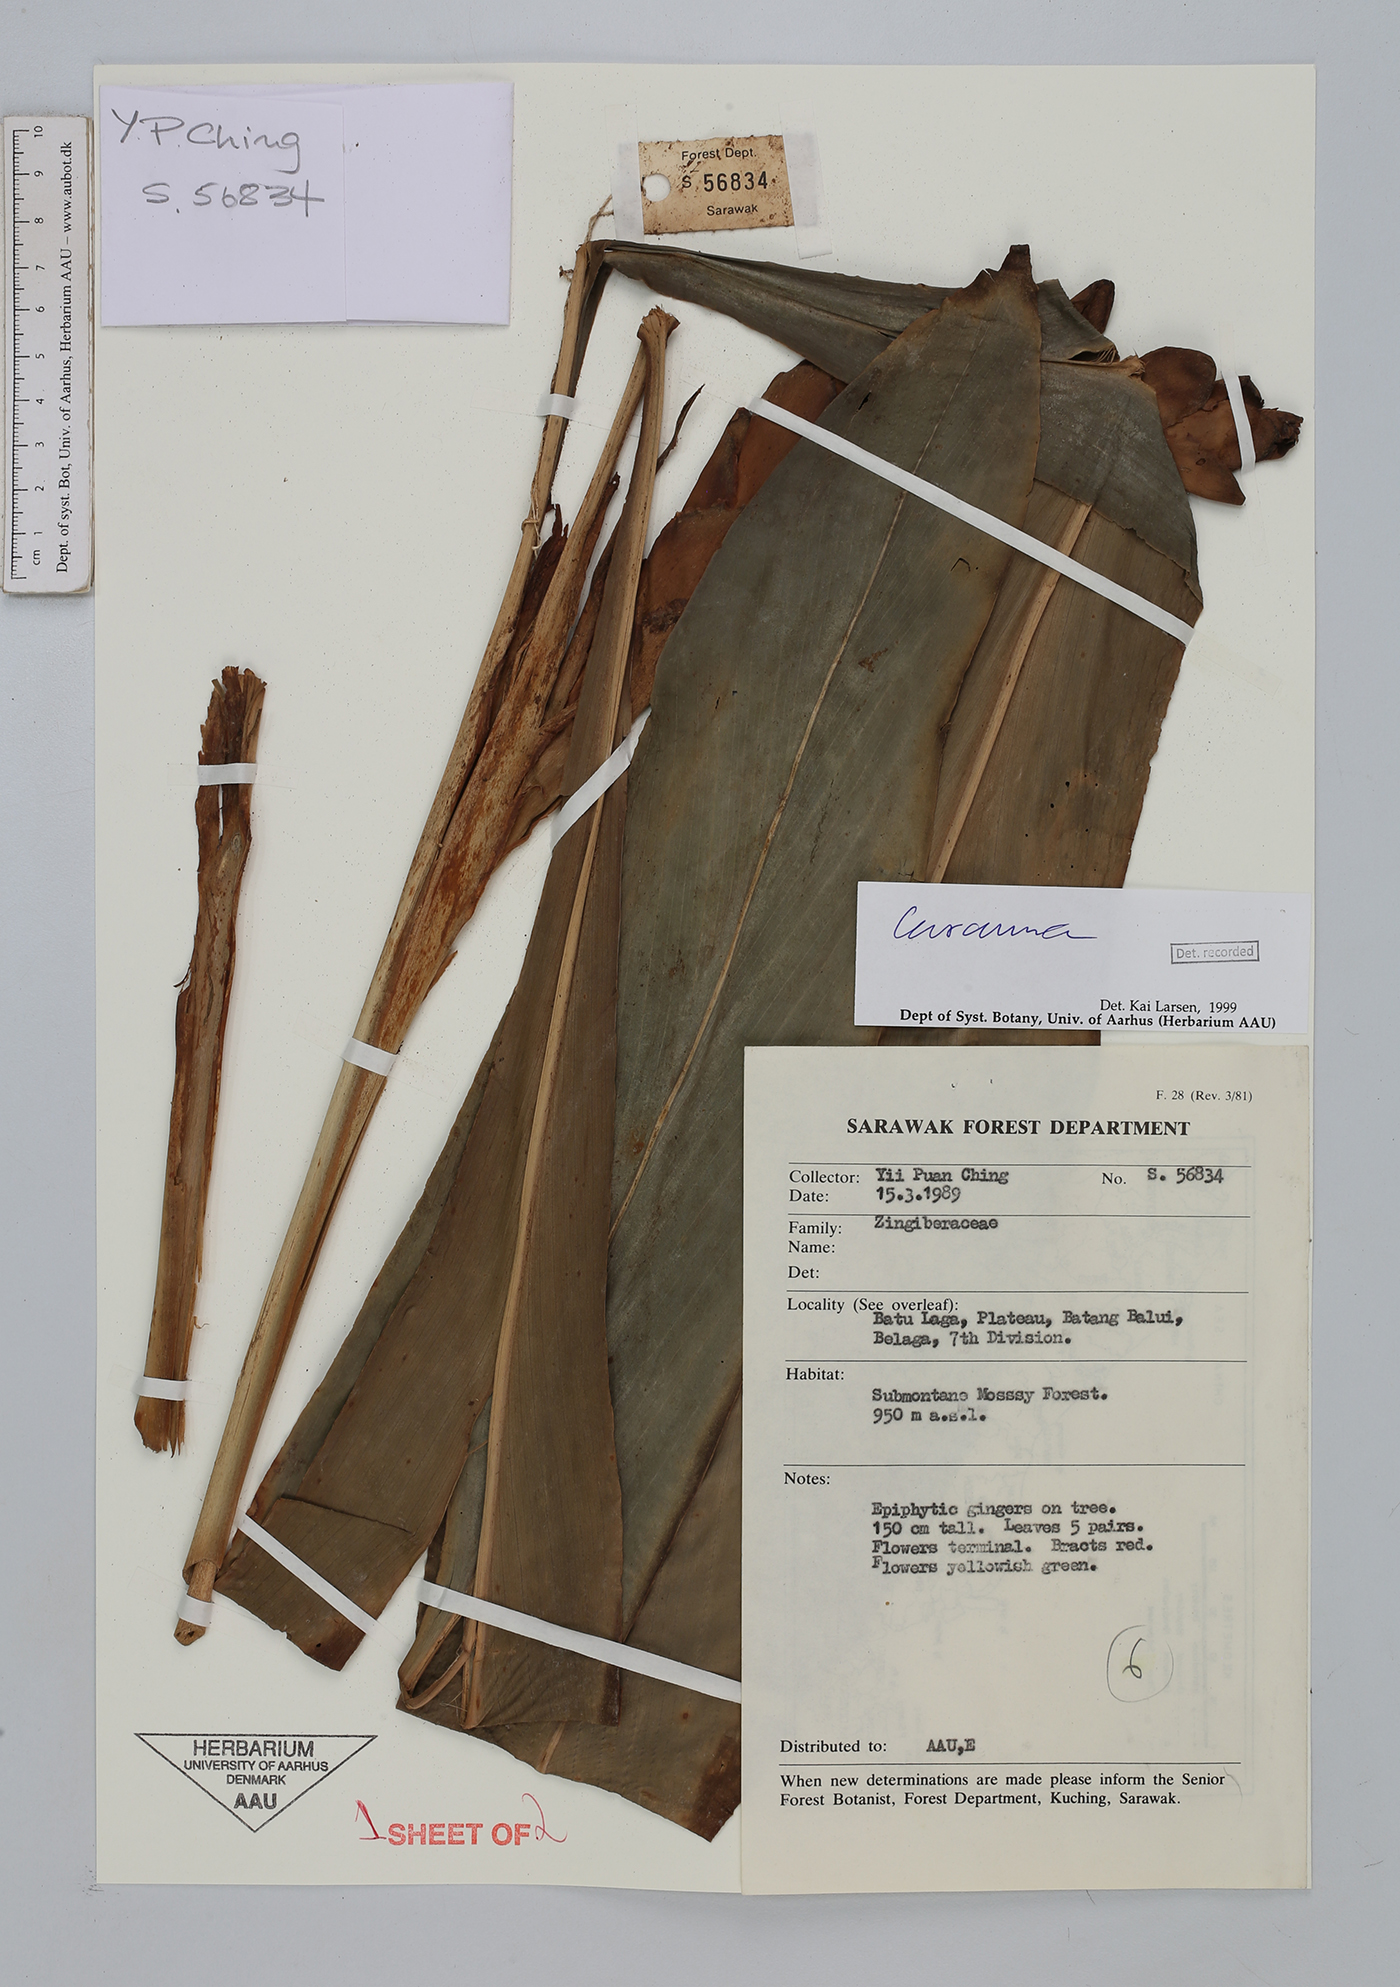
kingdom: Plantae
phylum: Tracheophyta
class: Liliopsida
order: Zingiberales
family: Zingiberaceae
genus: Curcuma
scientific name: Curcuma
